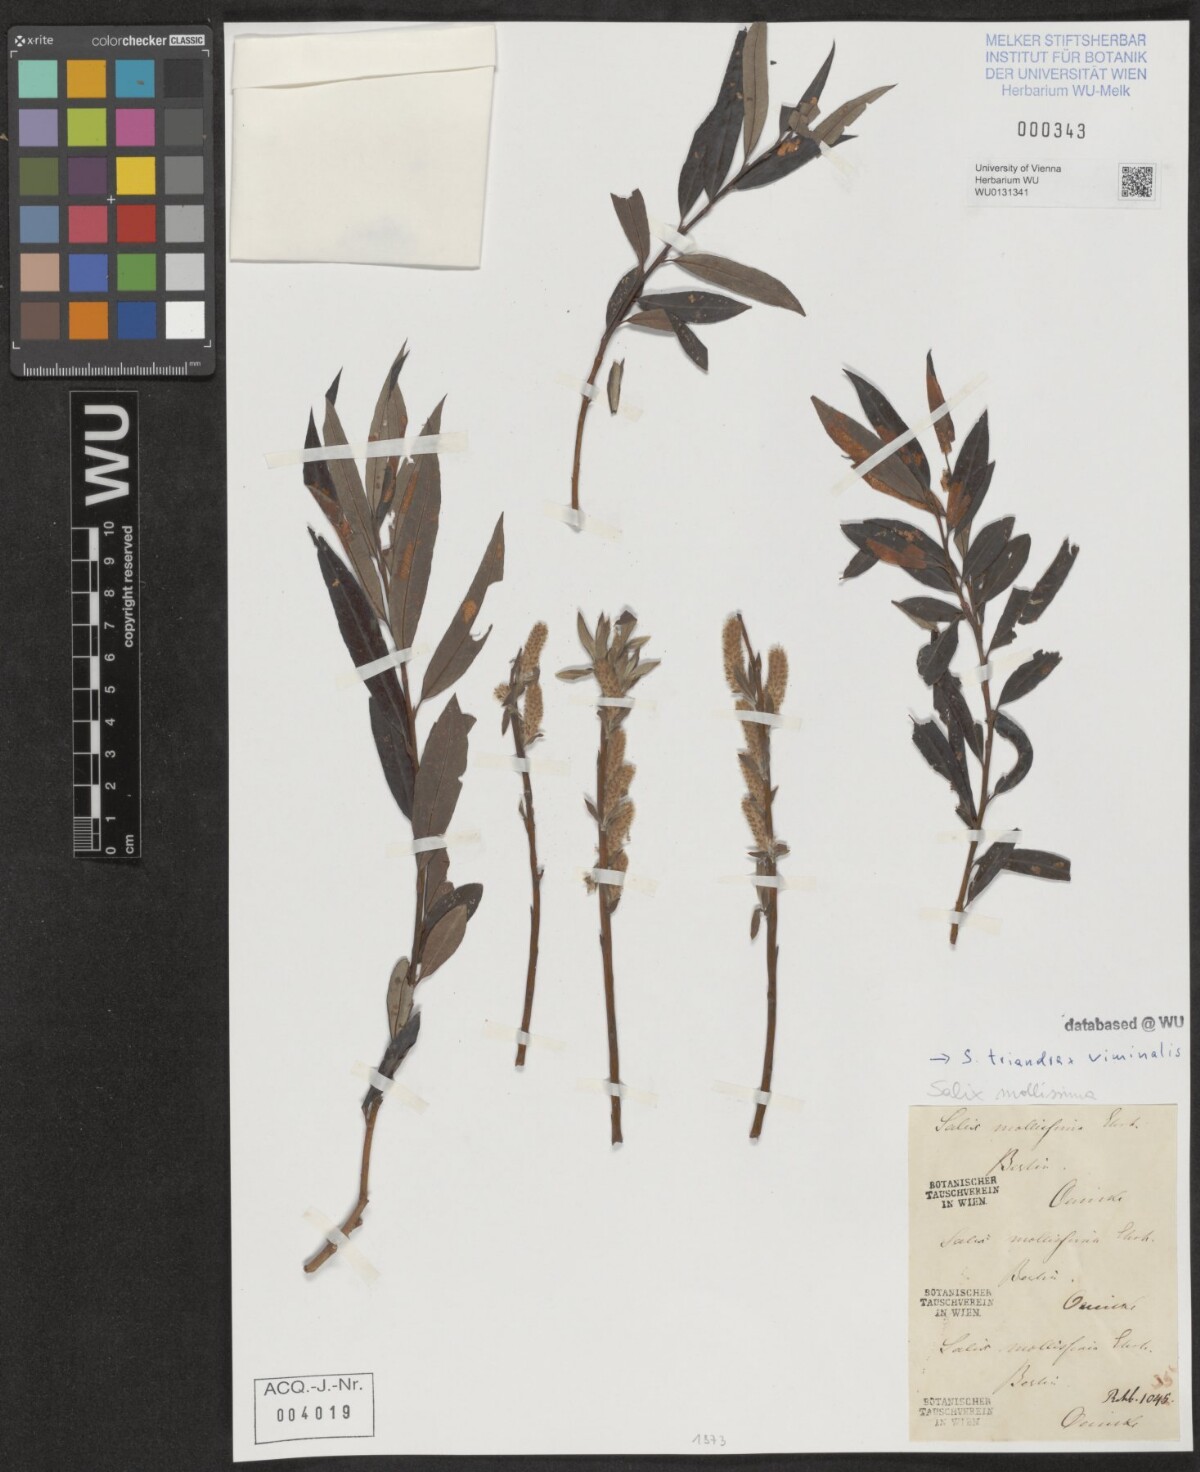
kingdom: Plantae
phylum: Tracheophyta
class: Magnoliopsida
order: Malpighiales
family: Salicaceae
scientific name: Salicaceae
